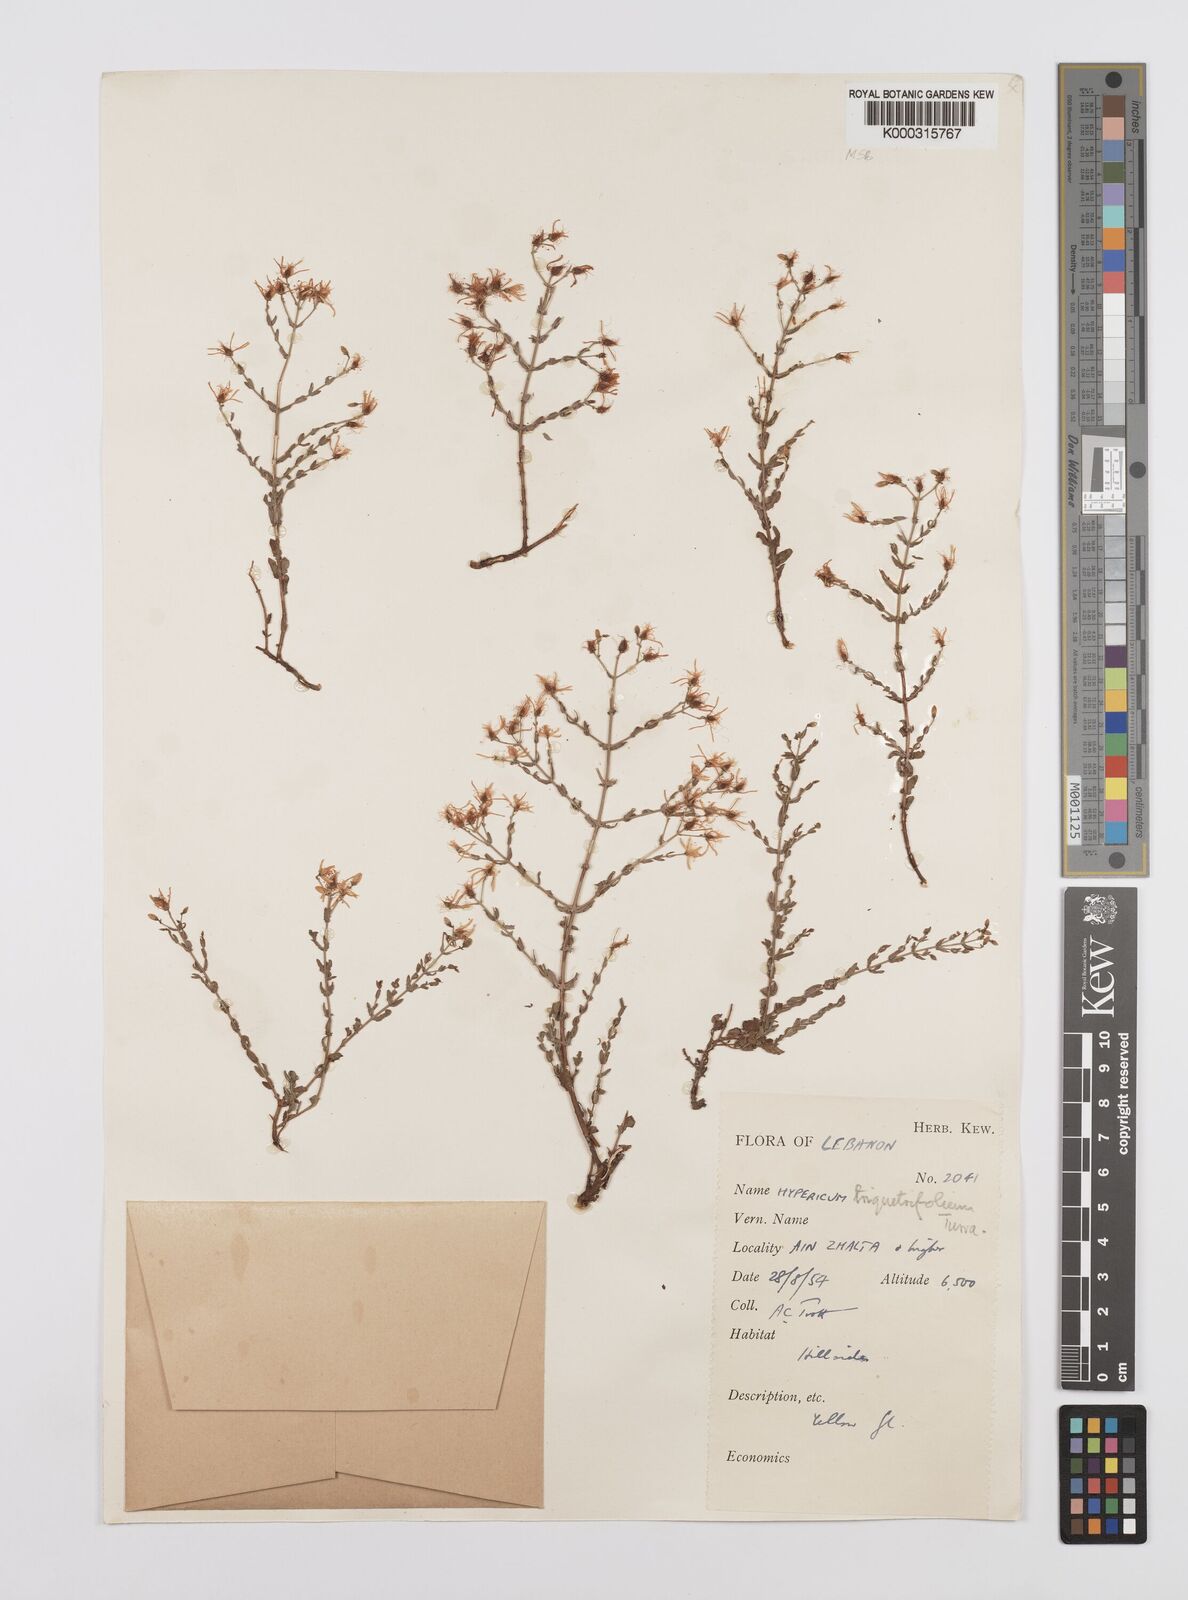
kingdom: Plantae
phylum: Tracheophyta
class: Magnoliopsida
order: Malpighiales
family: Hypericaceae
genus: Hypericum
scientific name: Hypericum triquetrifolium
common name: Tangled hypericum
